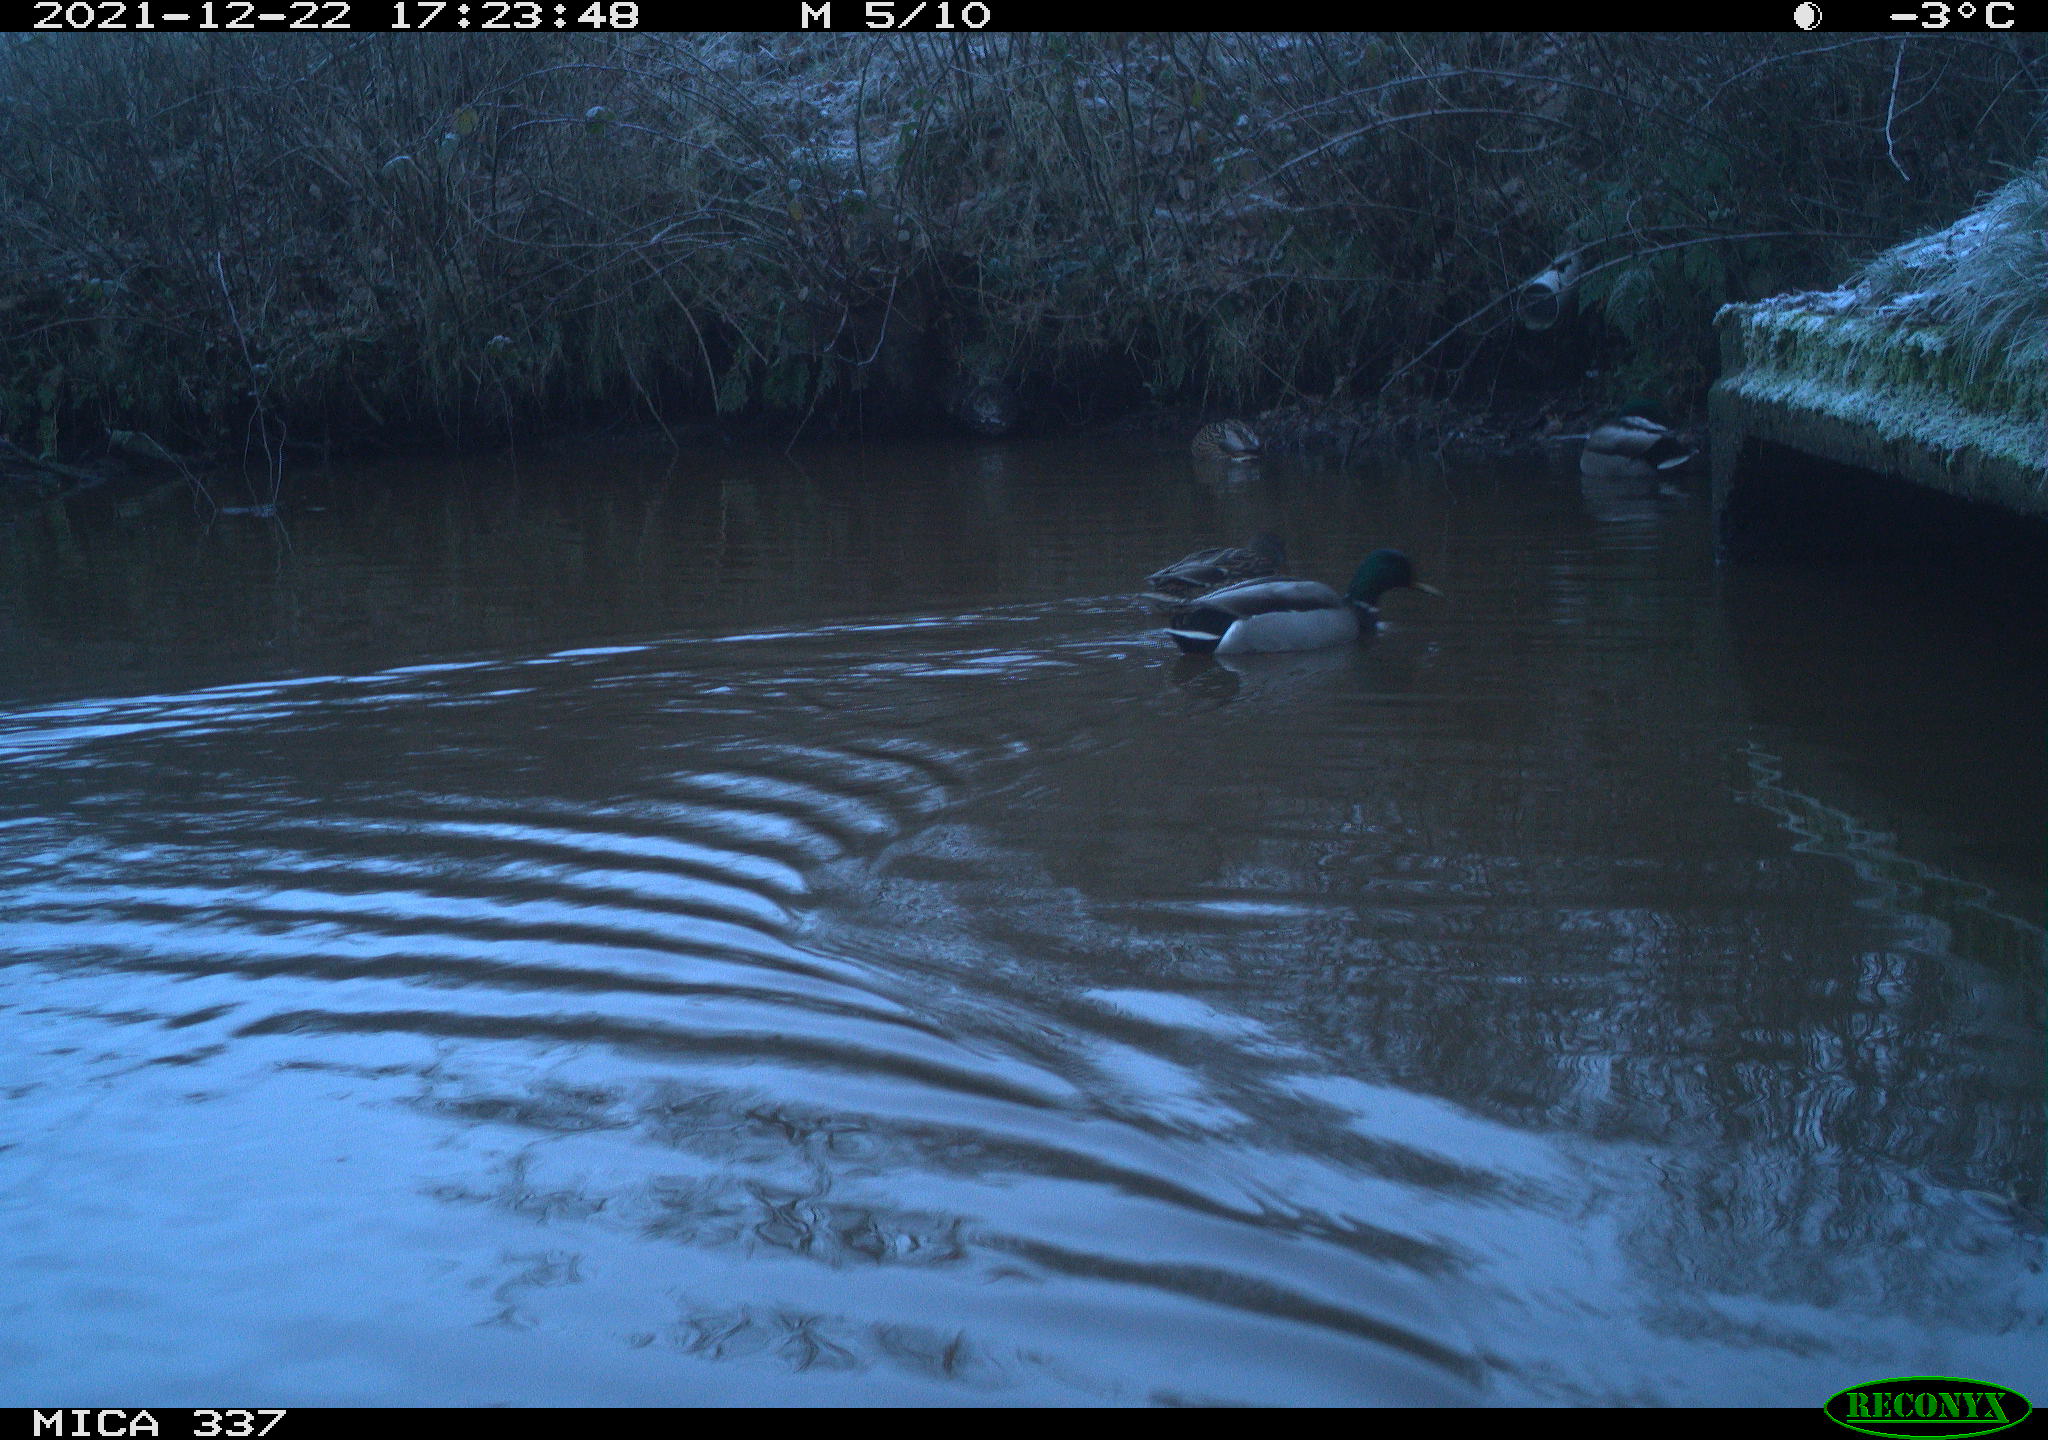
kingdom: Animalia
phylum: Chordata
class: Aves
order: Anseriformes
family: Anatidae
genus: Anas
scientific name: Anas platyrhynchos
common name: Mallard
